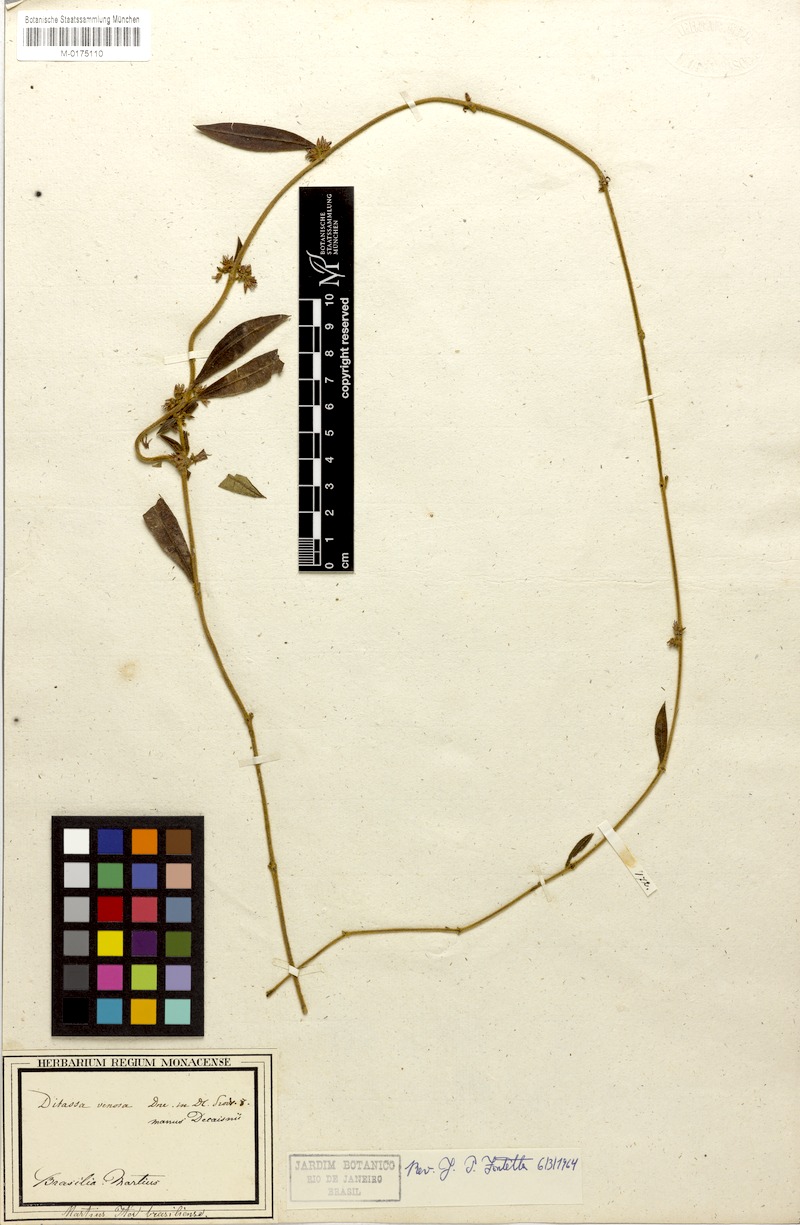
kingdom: Plantae
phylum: Tracheophyta
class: Magnoliopsida
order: Gentianales
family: Apocynaceae
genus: Ditassa
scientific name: Ditassa tomentosa
